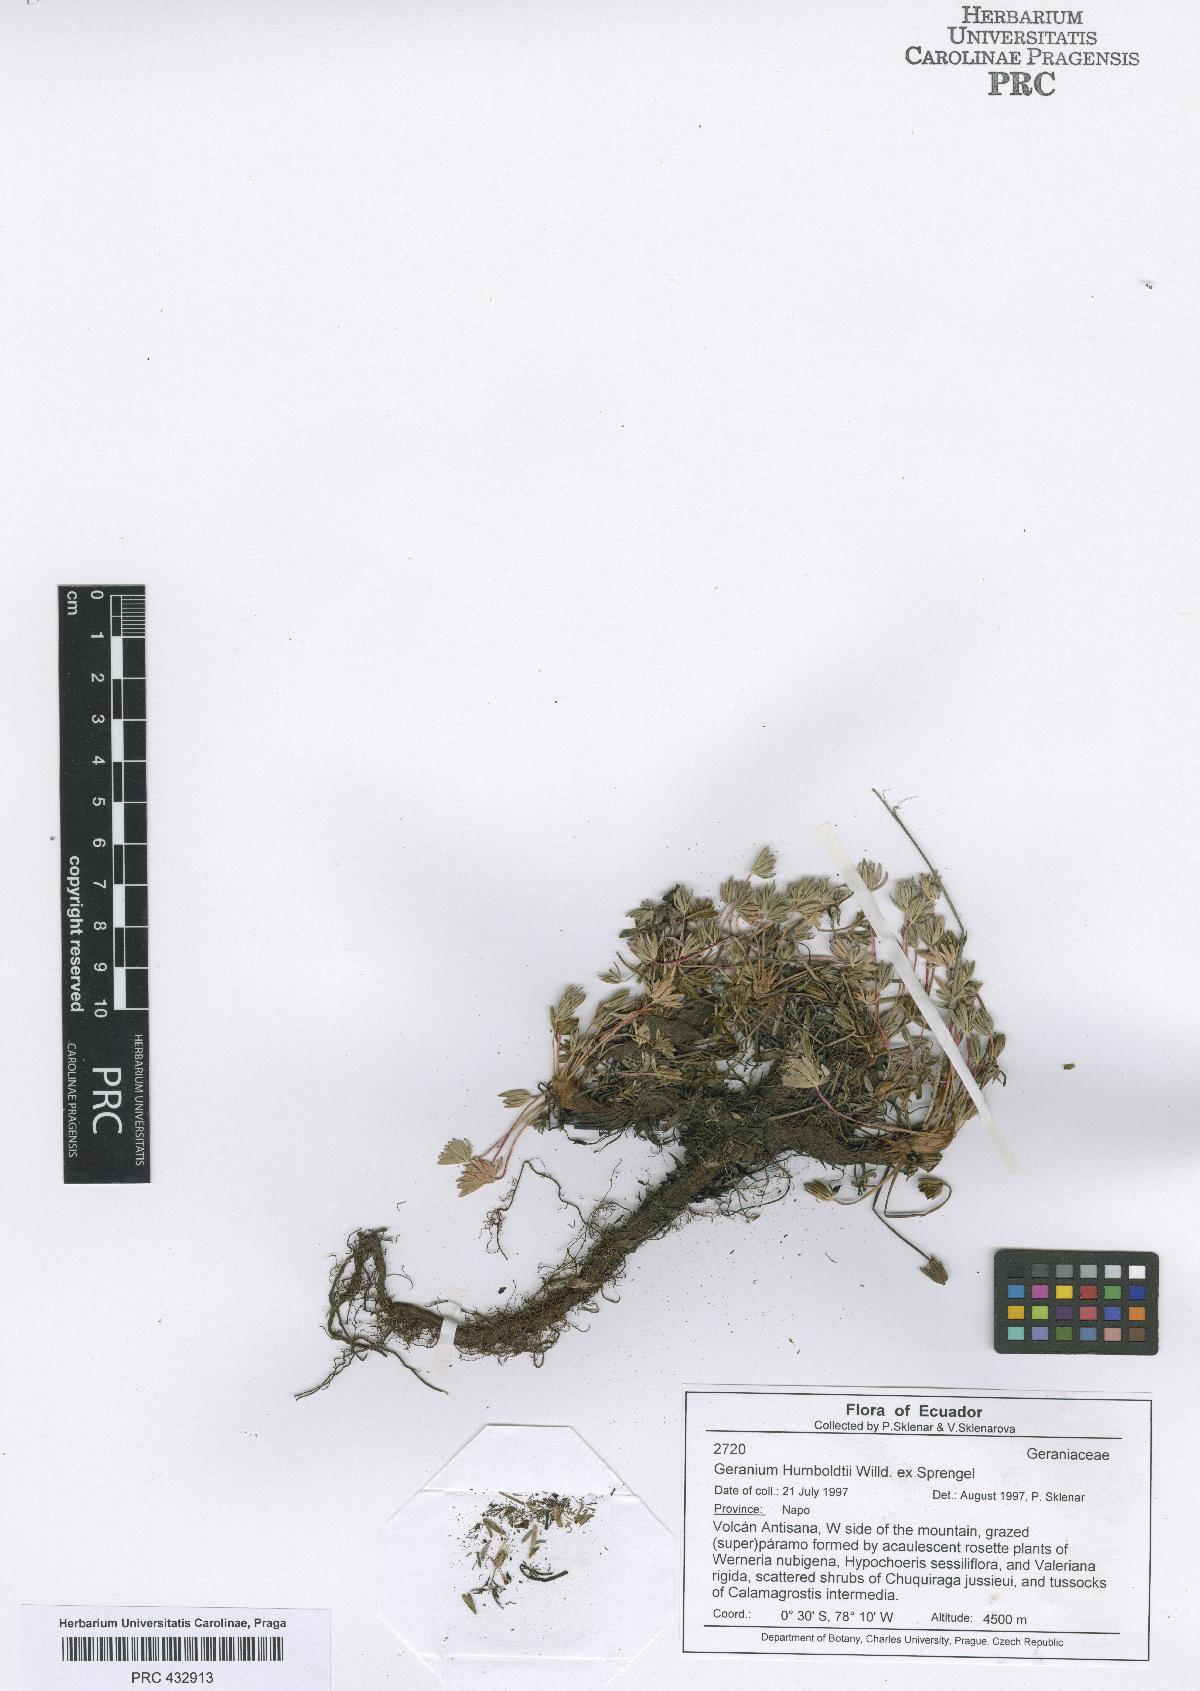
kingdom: Plantae
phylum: Tracheophyta
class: Magnoliopsida
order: Geraniales
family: Geraniaceae
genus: Geranium
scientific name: Geranium humboldtii
